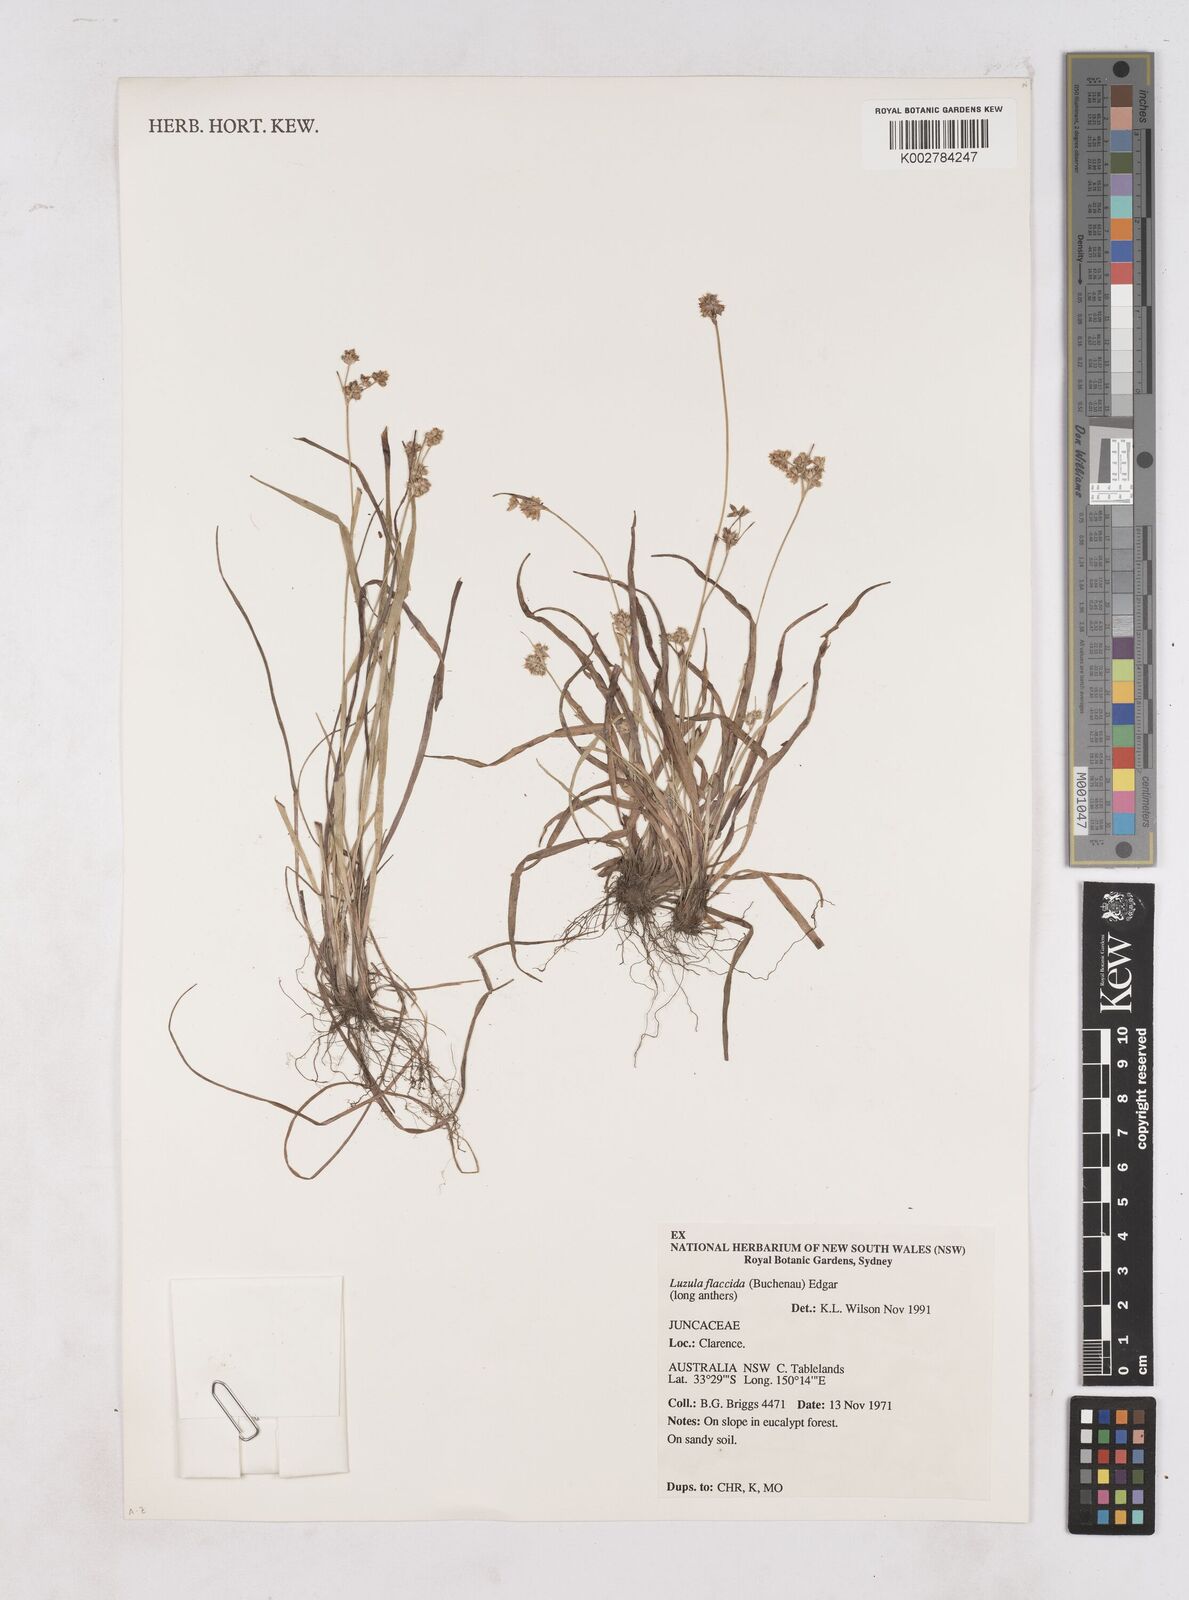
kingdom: Plantae
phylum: Tracheophyta
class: Liliopsida
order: Poales
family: Juncaceae
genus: Luzula
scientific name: Luzula flaccida
